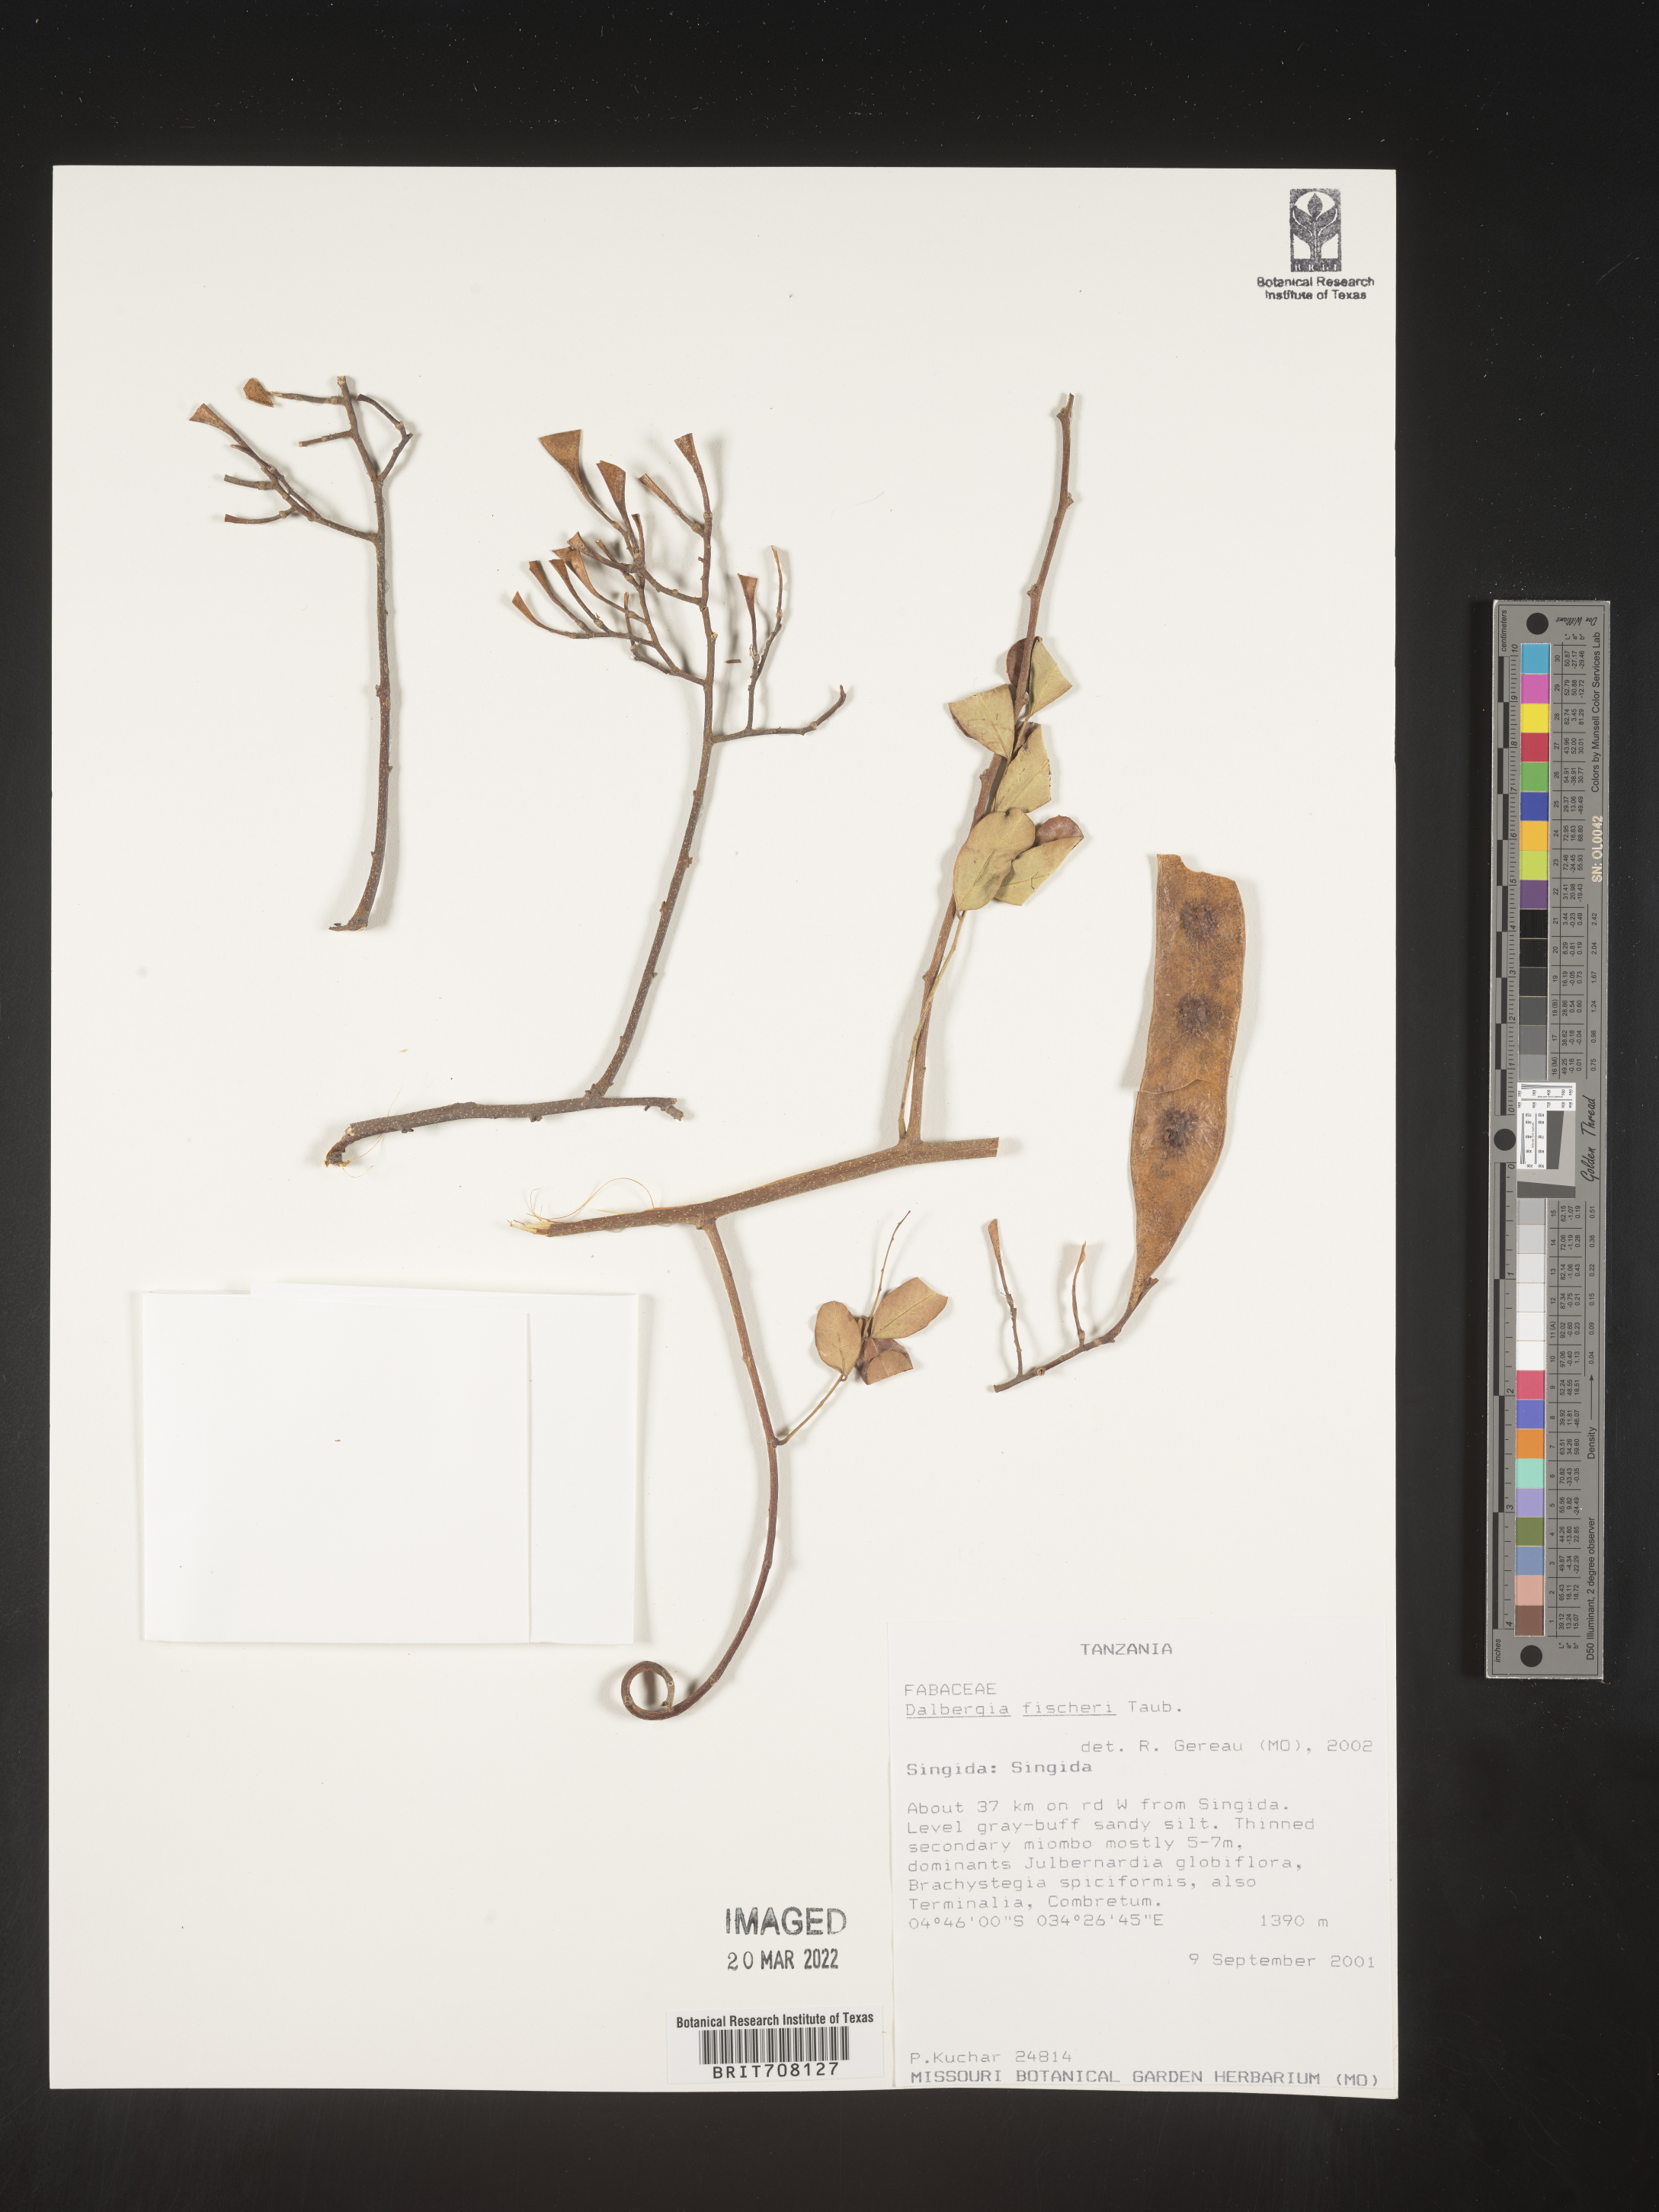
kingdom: Plantae
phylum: Tracheophyta
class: Magnoliopsida
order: Fabales
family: Fabaceae
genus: Dalbergia
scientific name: Dalbergia
